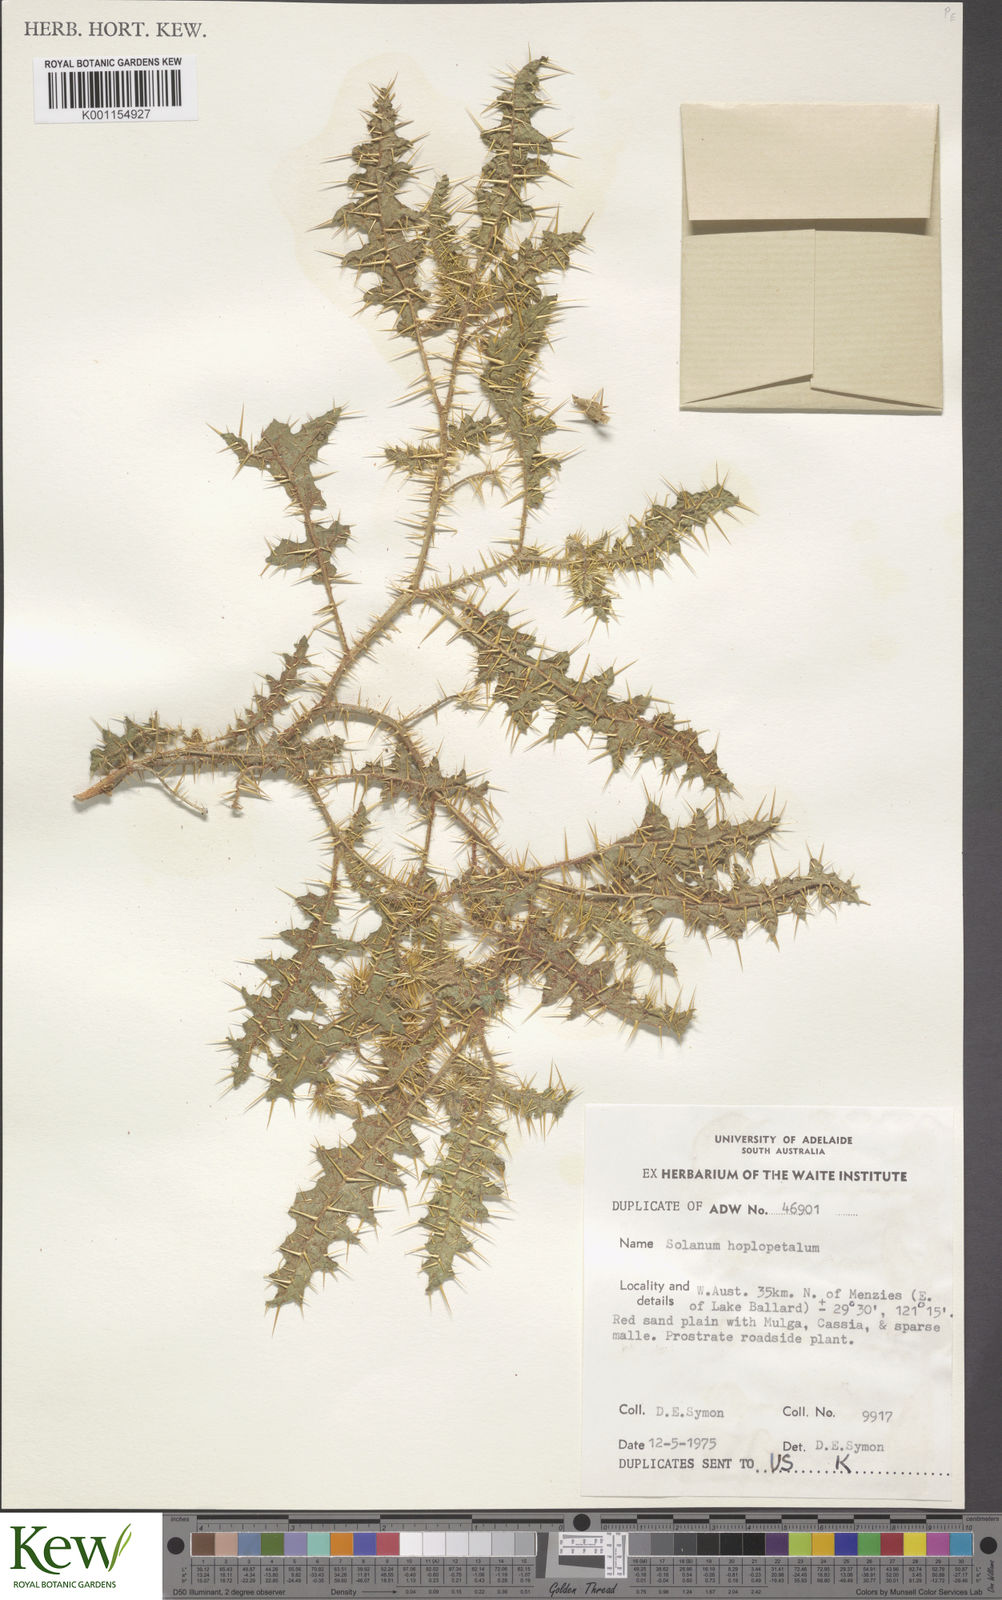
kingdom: Plantae
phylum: Tracheophyta
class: Magnoliopsida
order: Solanales
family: Solanaceae
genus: Solanum
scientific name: Solanum hoplopetalum
